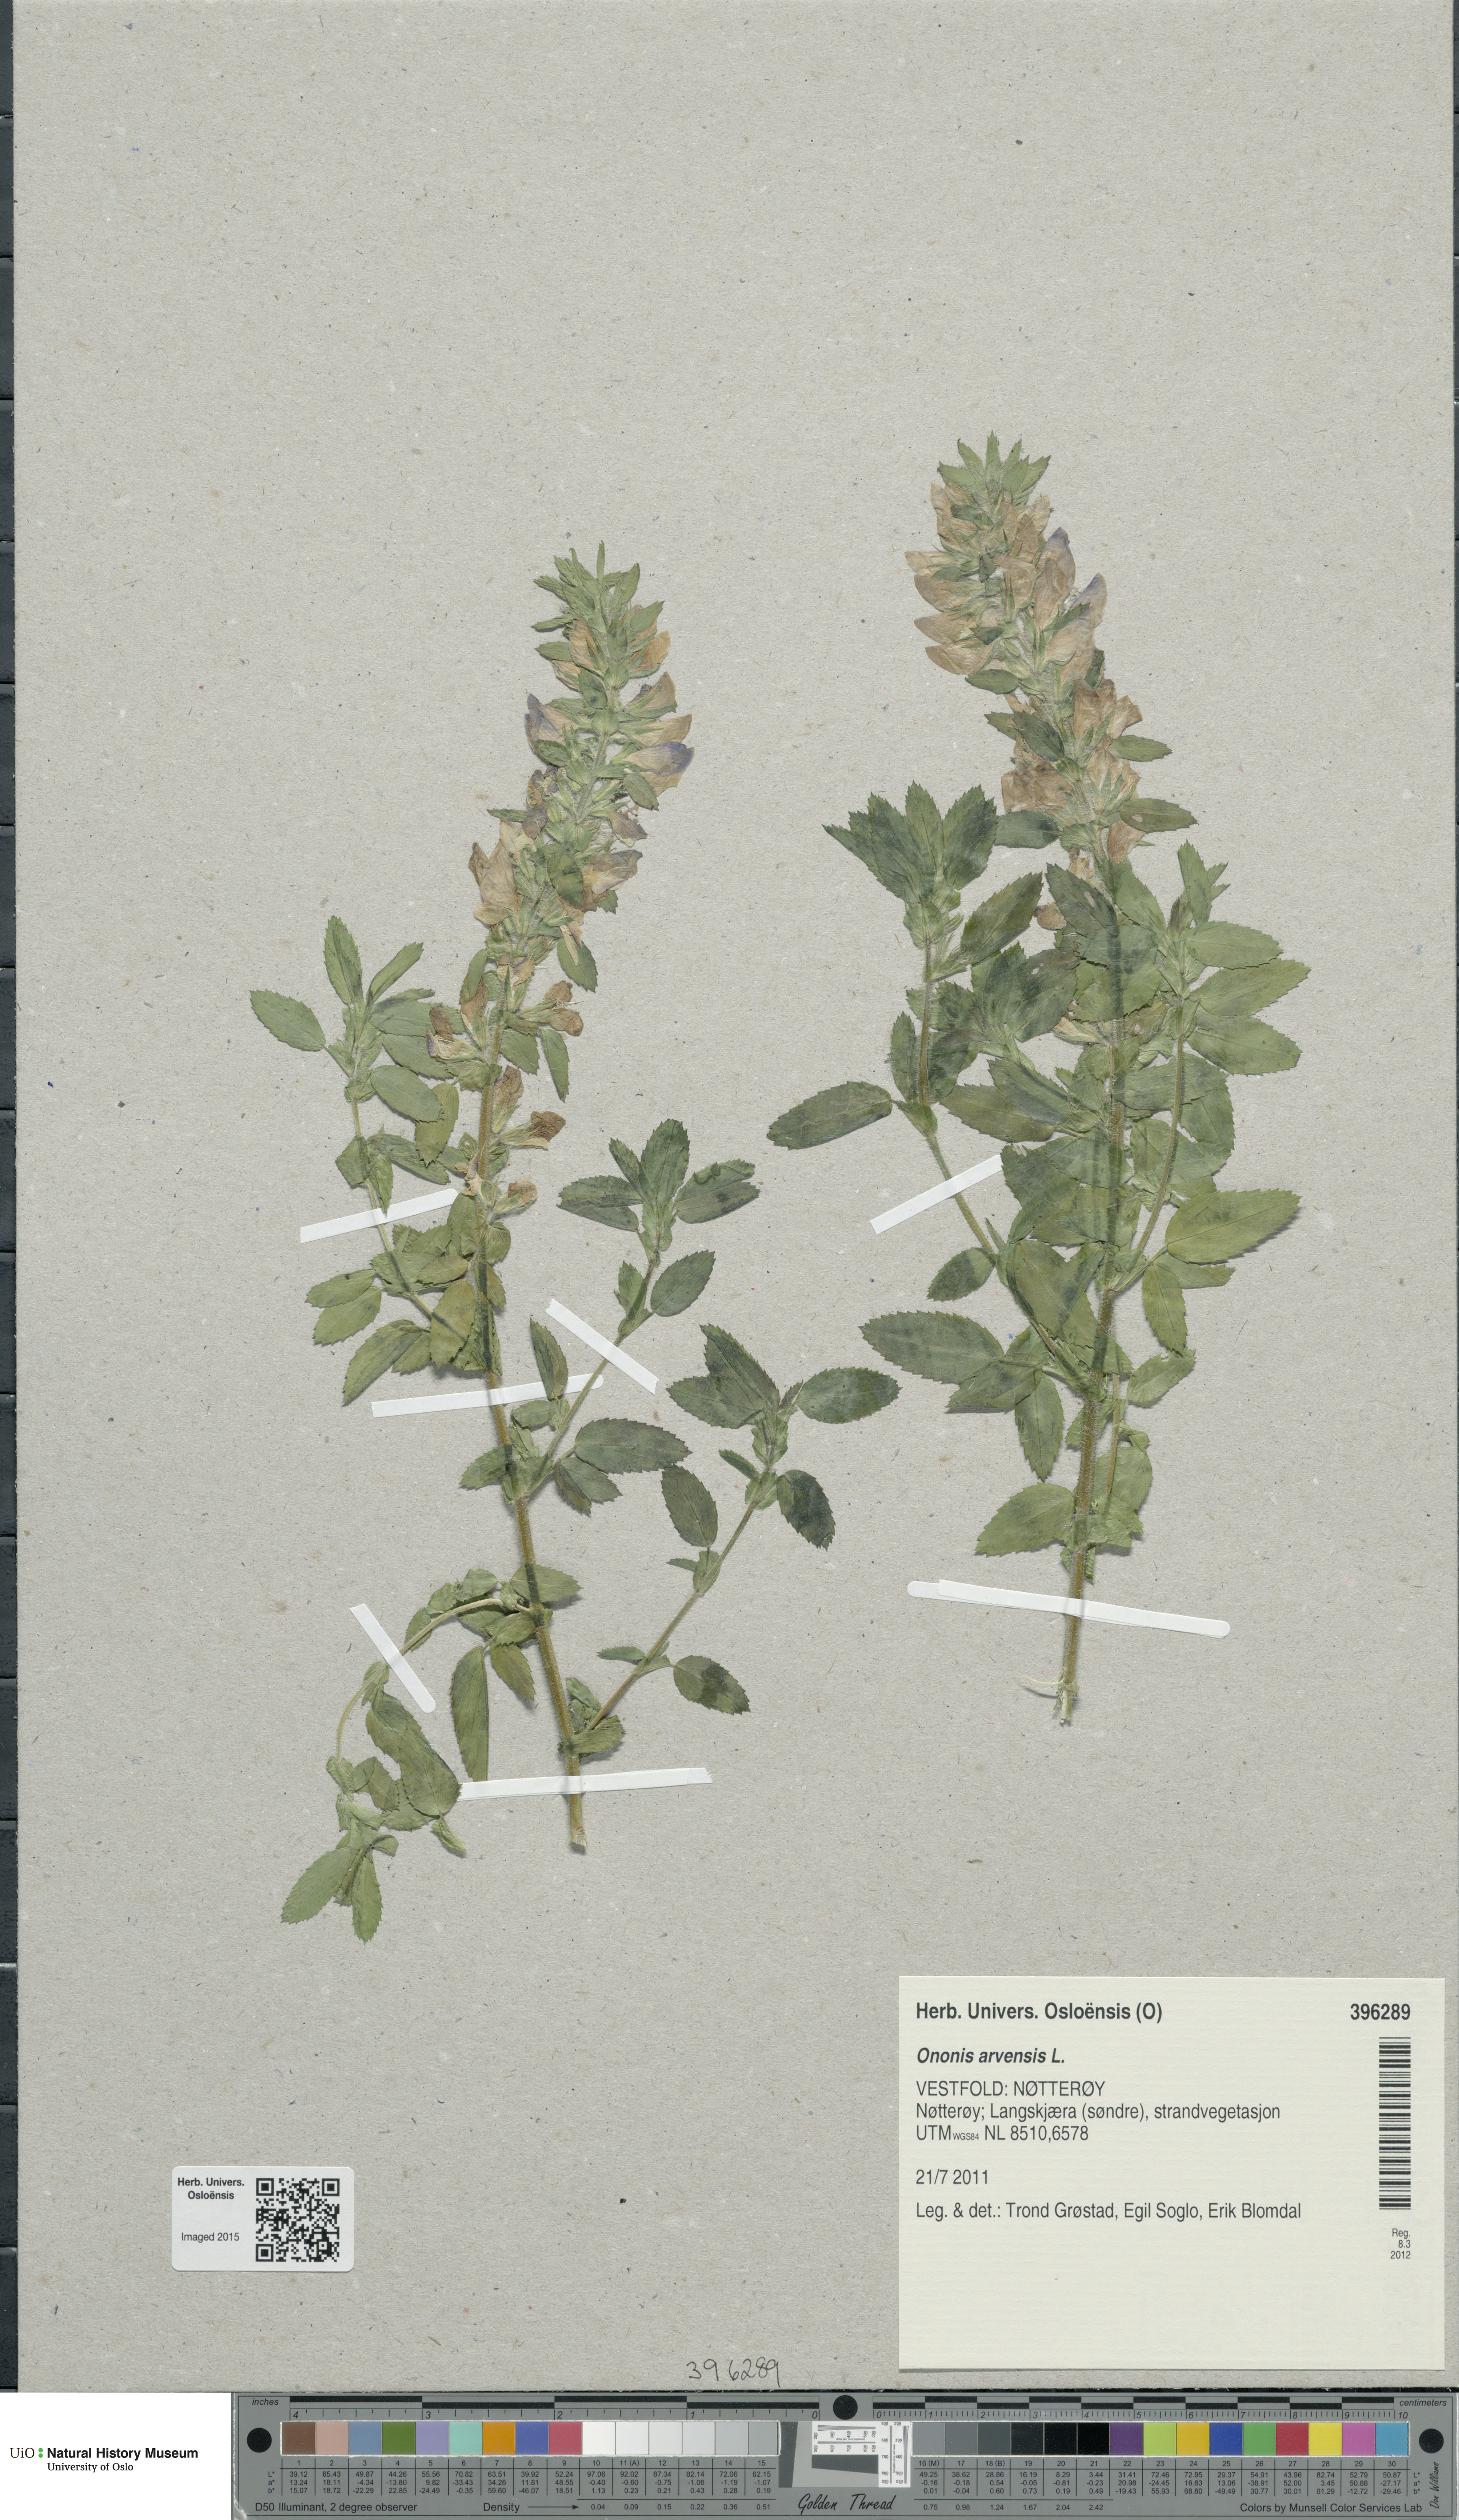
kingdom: Plantae
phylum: Tracheophyta
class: Magnoliopsida
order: Fabales
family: Fabaceae
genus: Ononis
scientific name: Ononis arvensis
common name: Field restharrow
